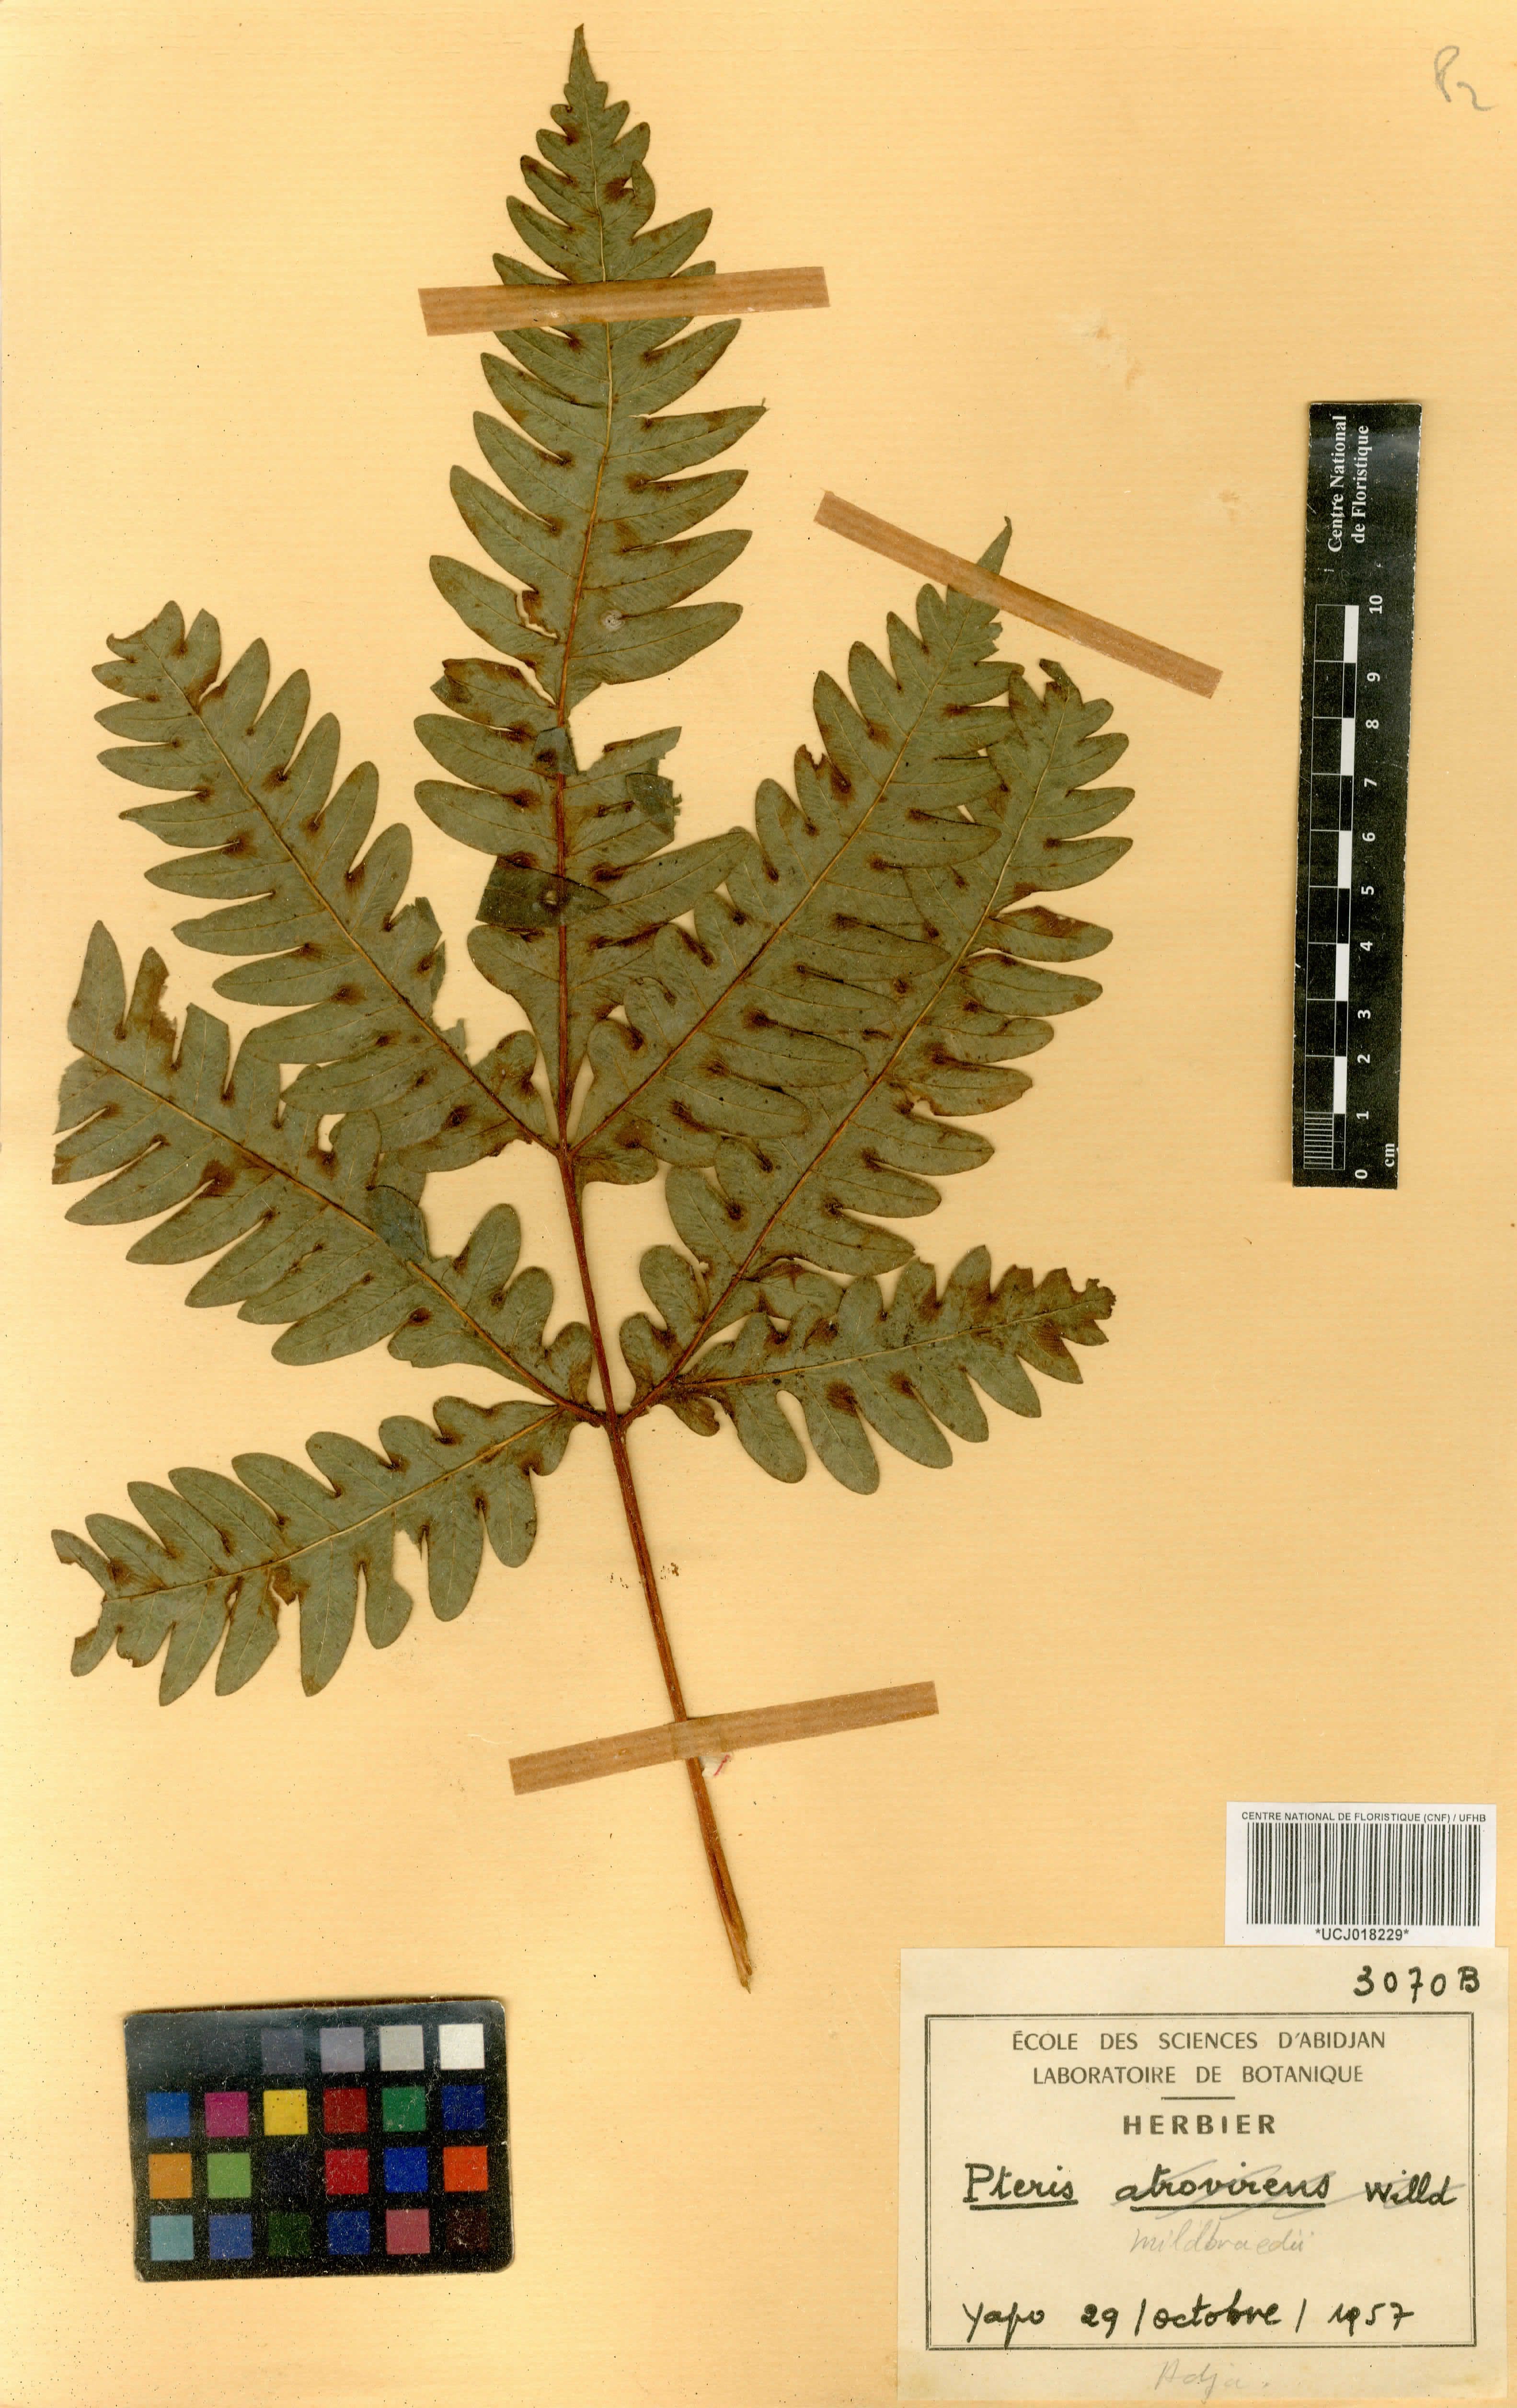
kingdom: Plantae
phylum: Tracheophyta
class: Polypodiopsida
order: Polypodiales
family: Pteridaceae
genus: Pteris
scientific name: Pteris mildbraedii
